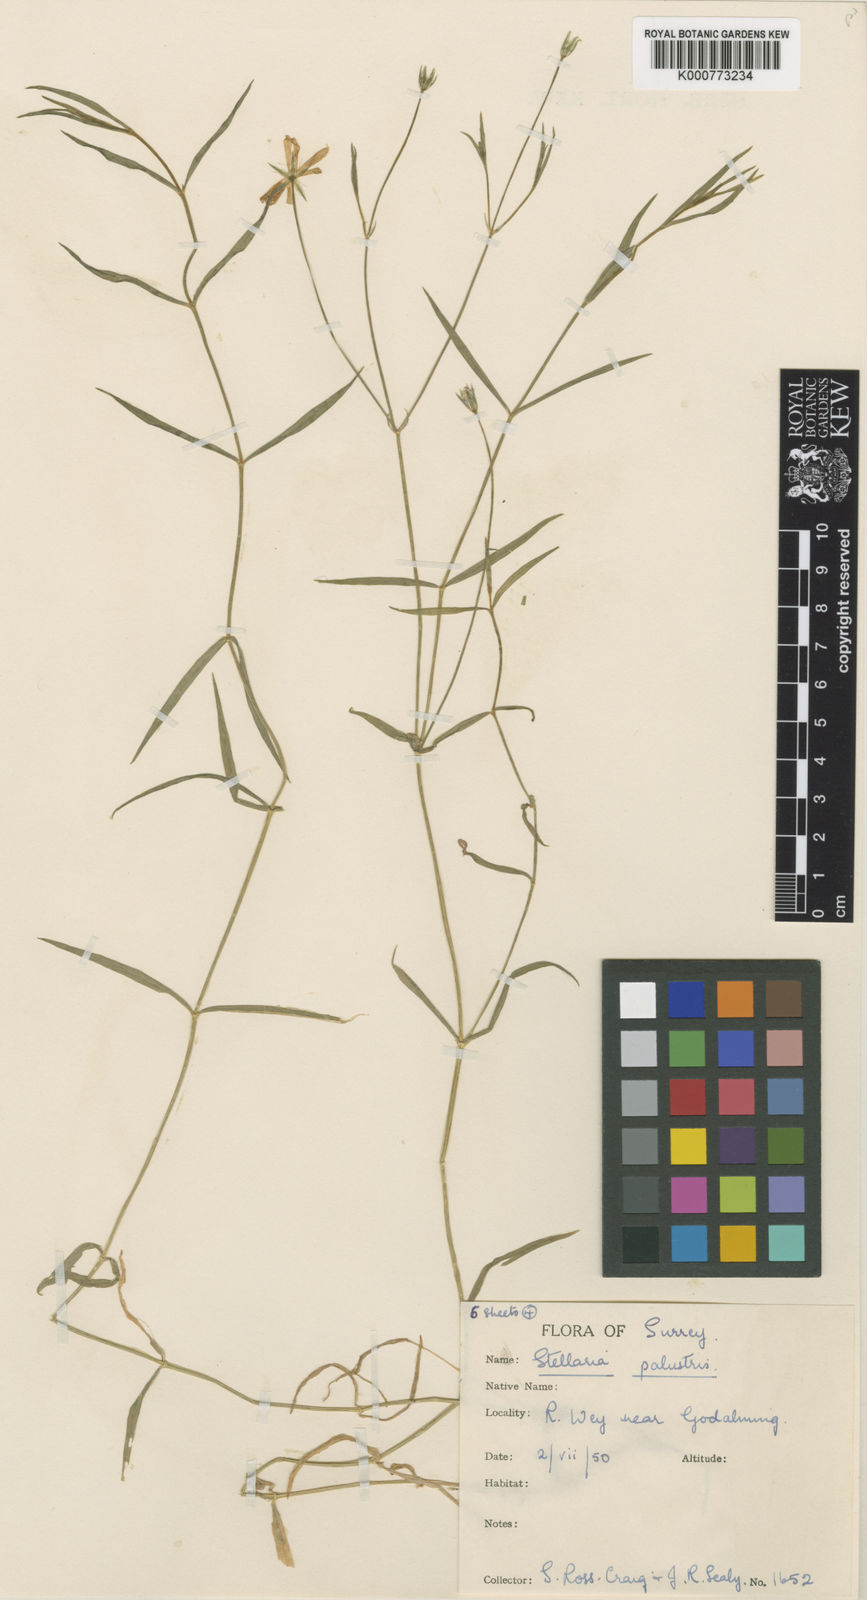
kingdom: Plantae
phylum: Tracheophyta
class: Magnoliopsida
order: Caryophyllales
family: Caryophyllaceae
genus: Stellaria
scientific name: Stellaria
